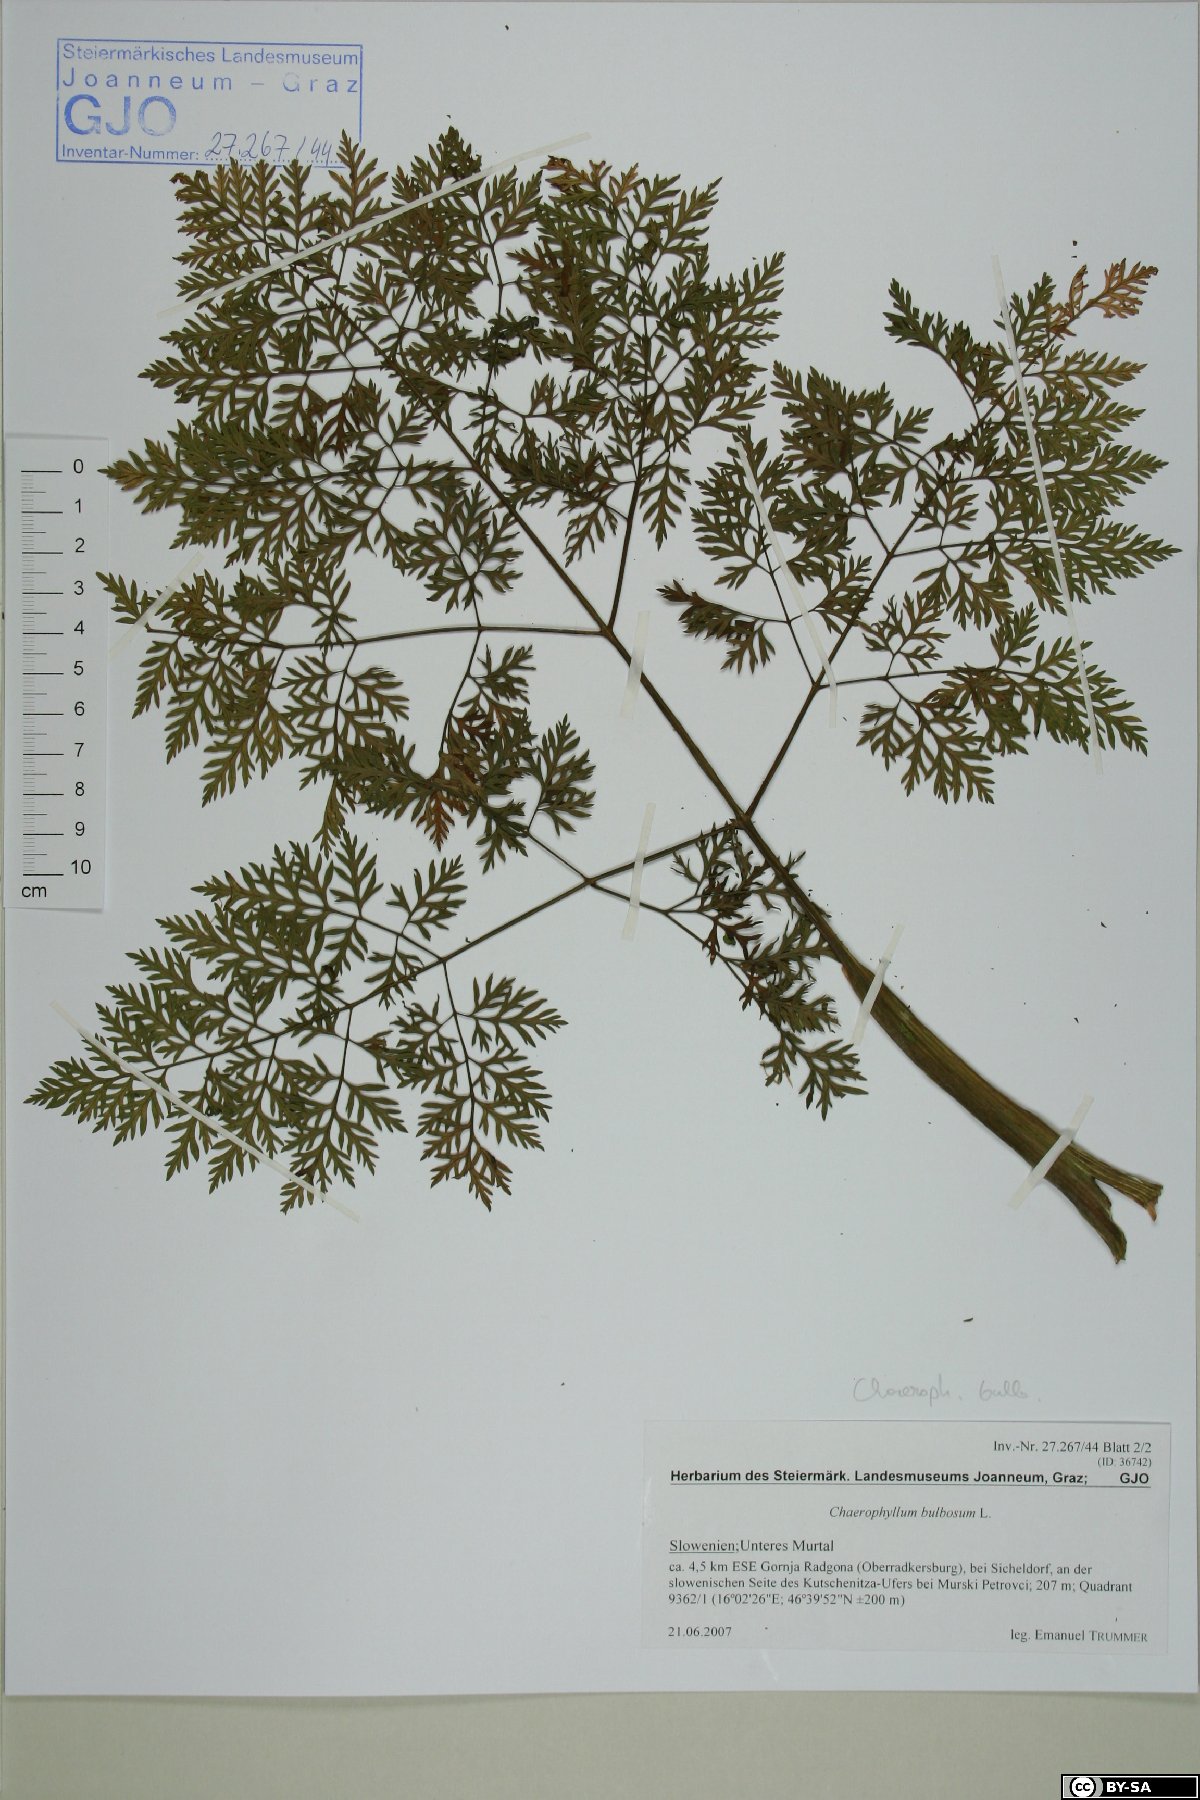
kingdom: Plantae
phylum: Tracheophyta
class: Magnoliopsida
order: Apiales
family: Apiaceae
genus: Chaerophyllum
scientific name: Chaerophyllum bulbosum
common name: Bulbous chervil
